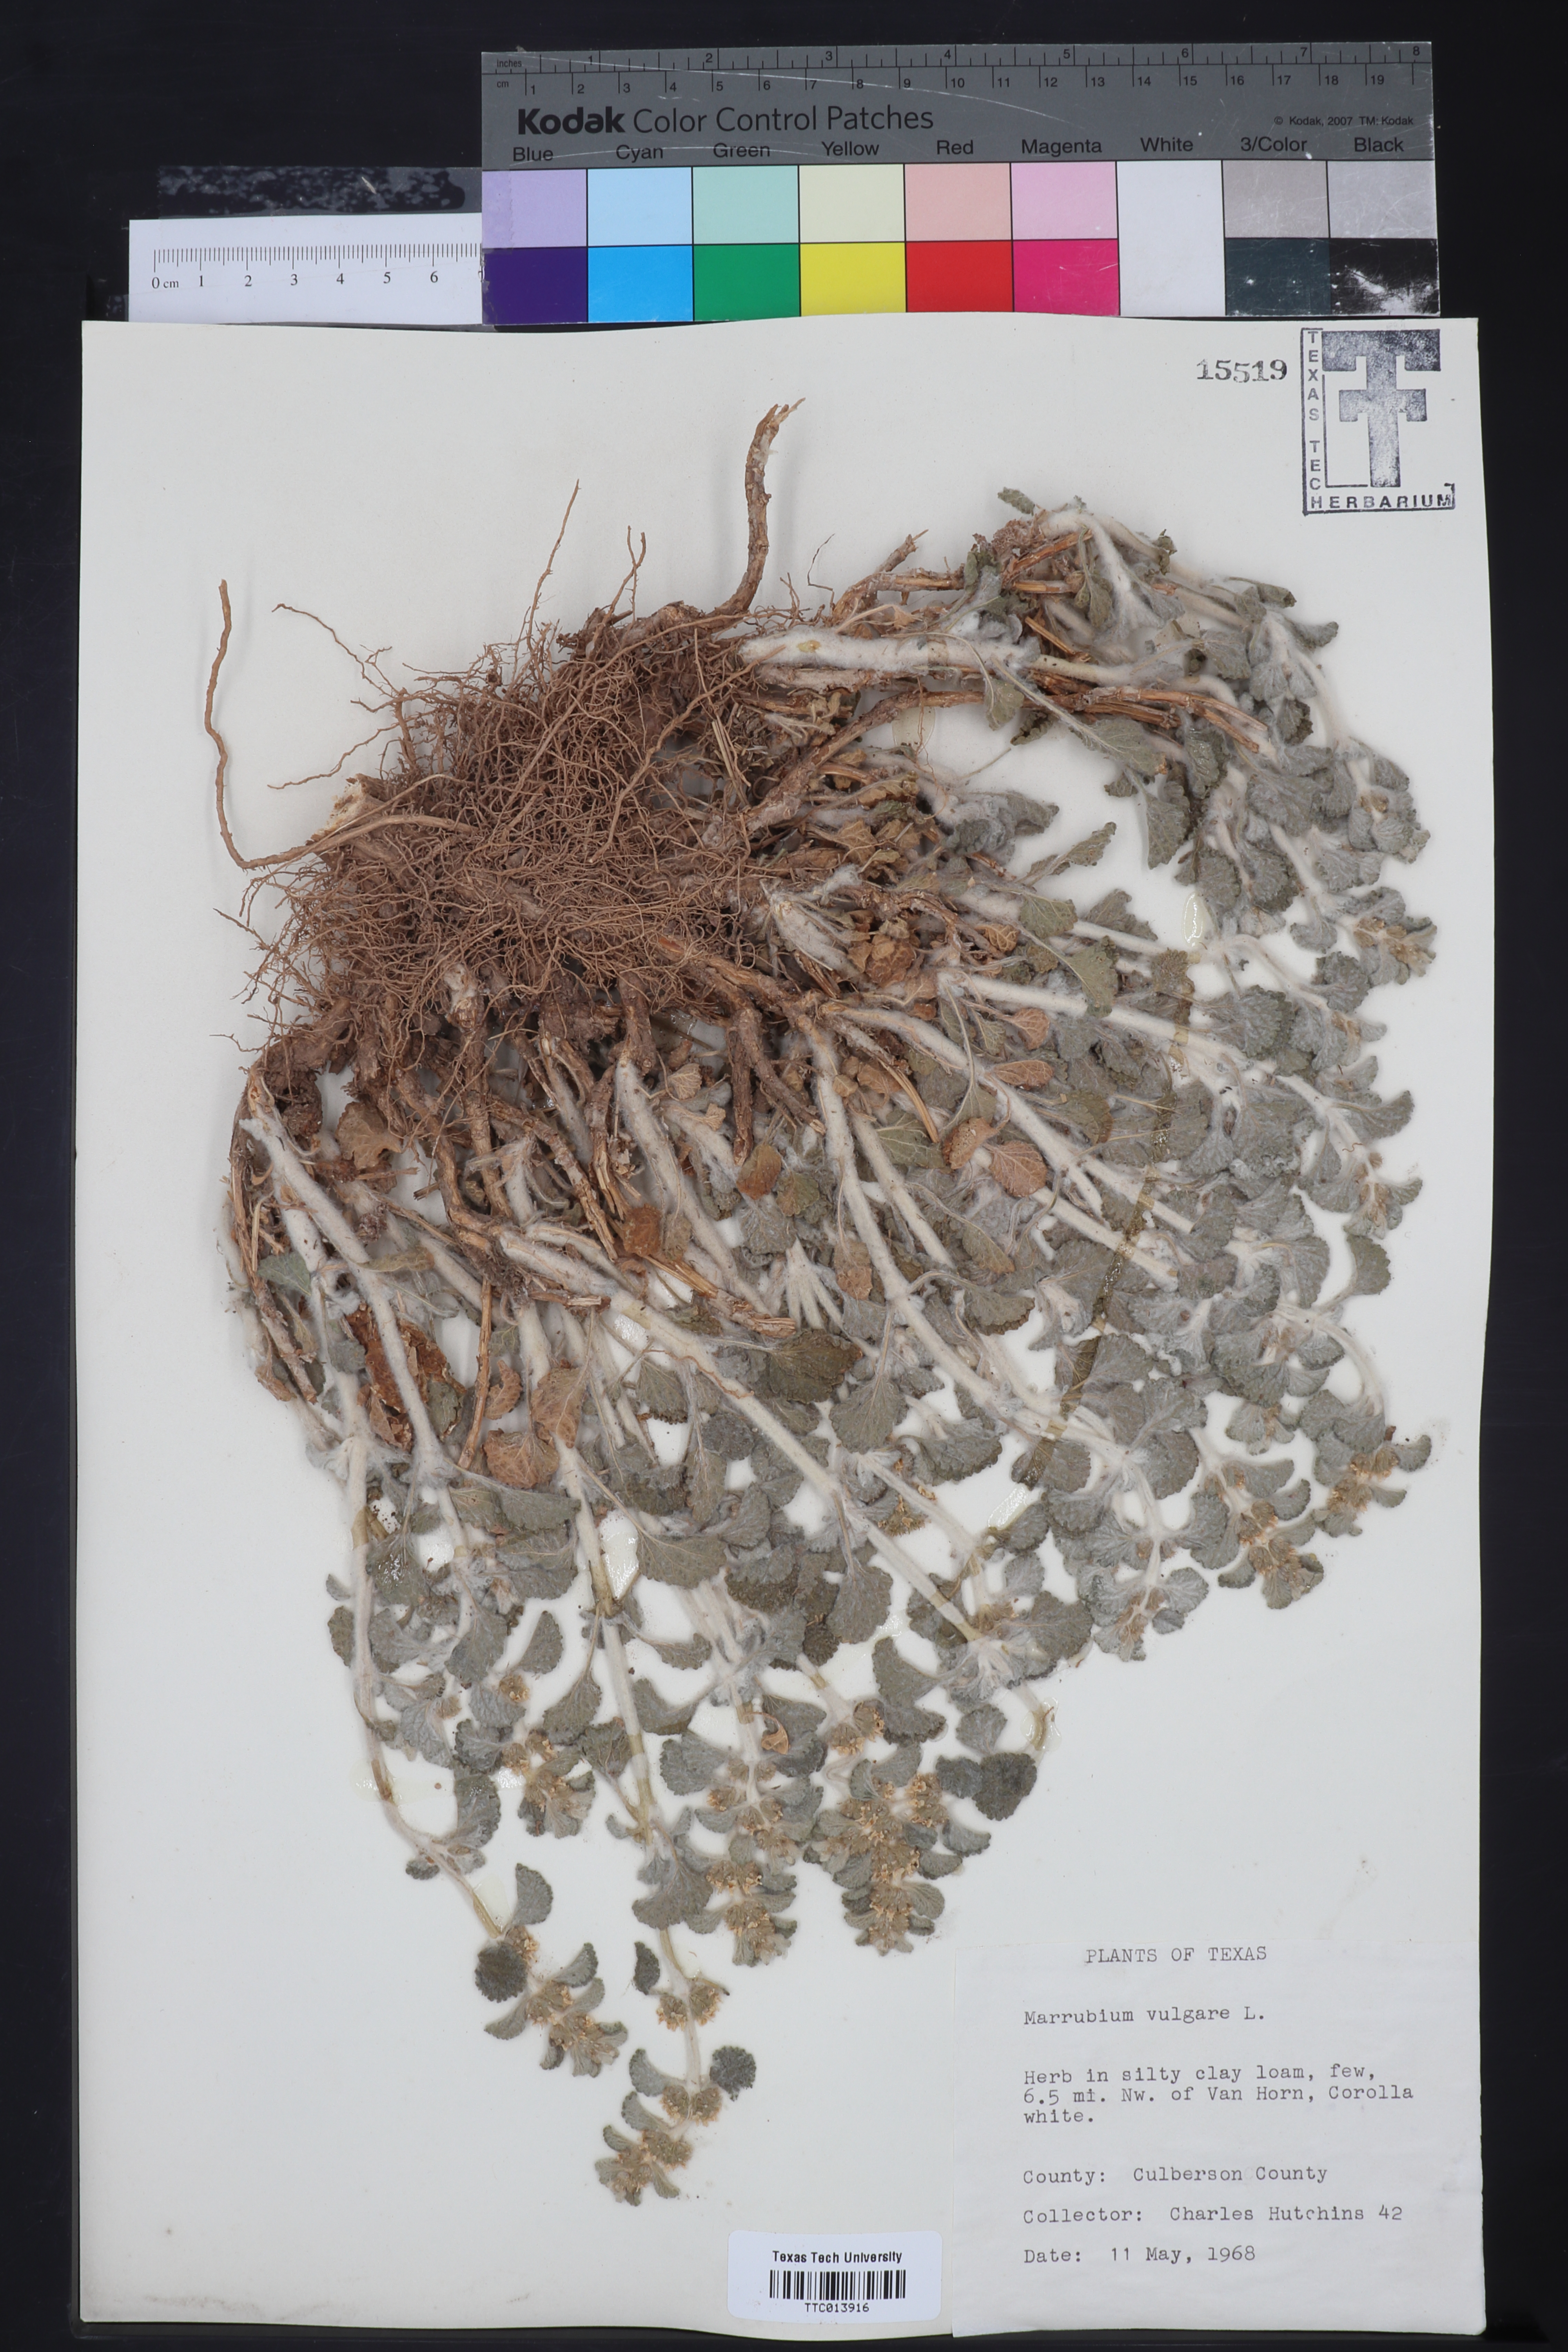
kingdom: Plantae
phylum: Tracheophyta
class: Magnoliopsida
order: Lamiales
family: Lamiaceae
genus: Marrubium
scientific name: Marrubium vulgare
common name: Horehound
